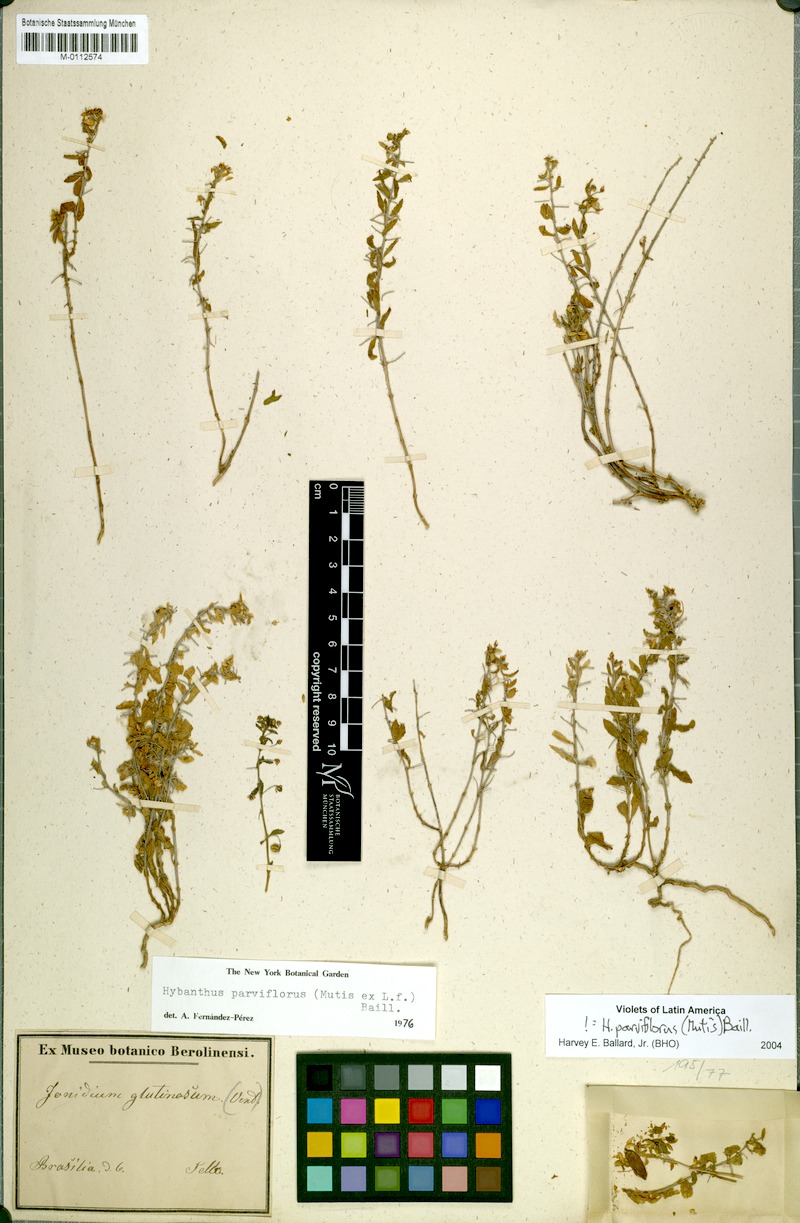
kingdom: Plantae
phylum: Tracheophyta
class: Magnoliopsida
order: Malpighiales
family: Violaceae
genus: Pombalia
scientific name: Pombalia parviflora
